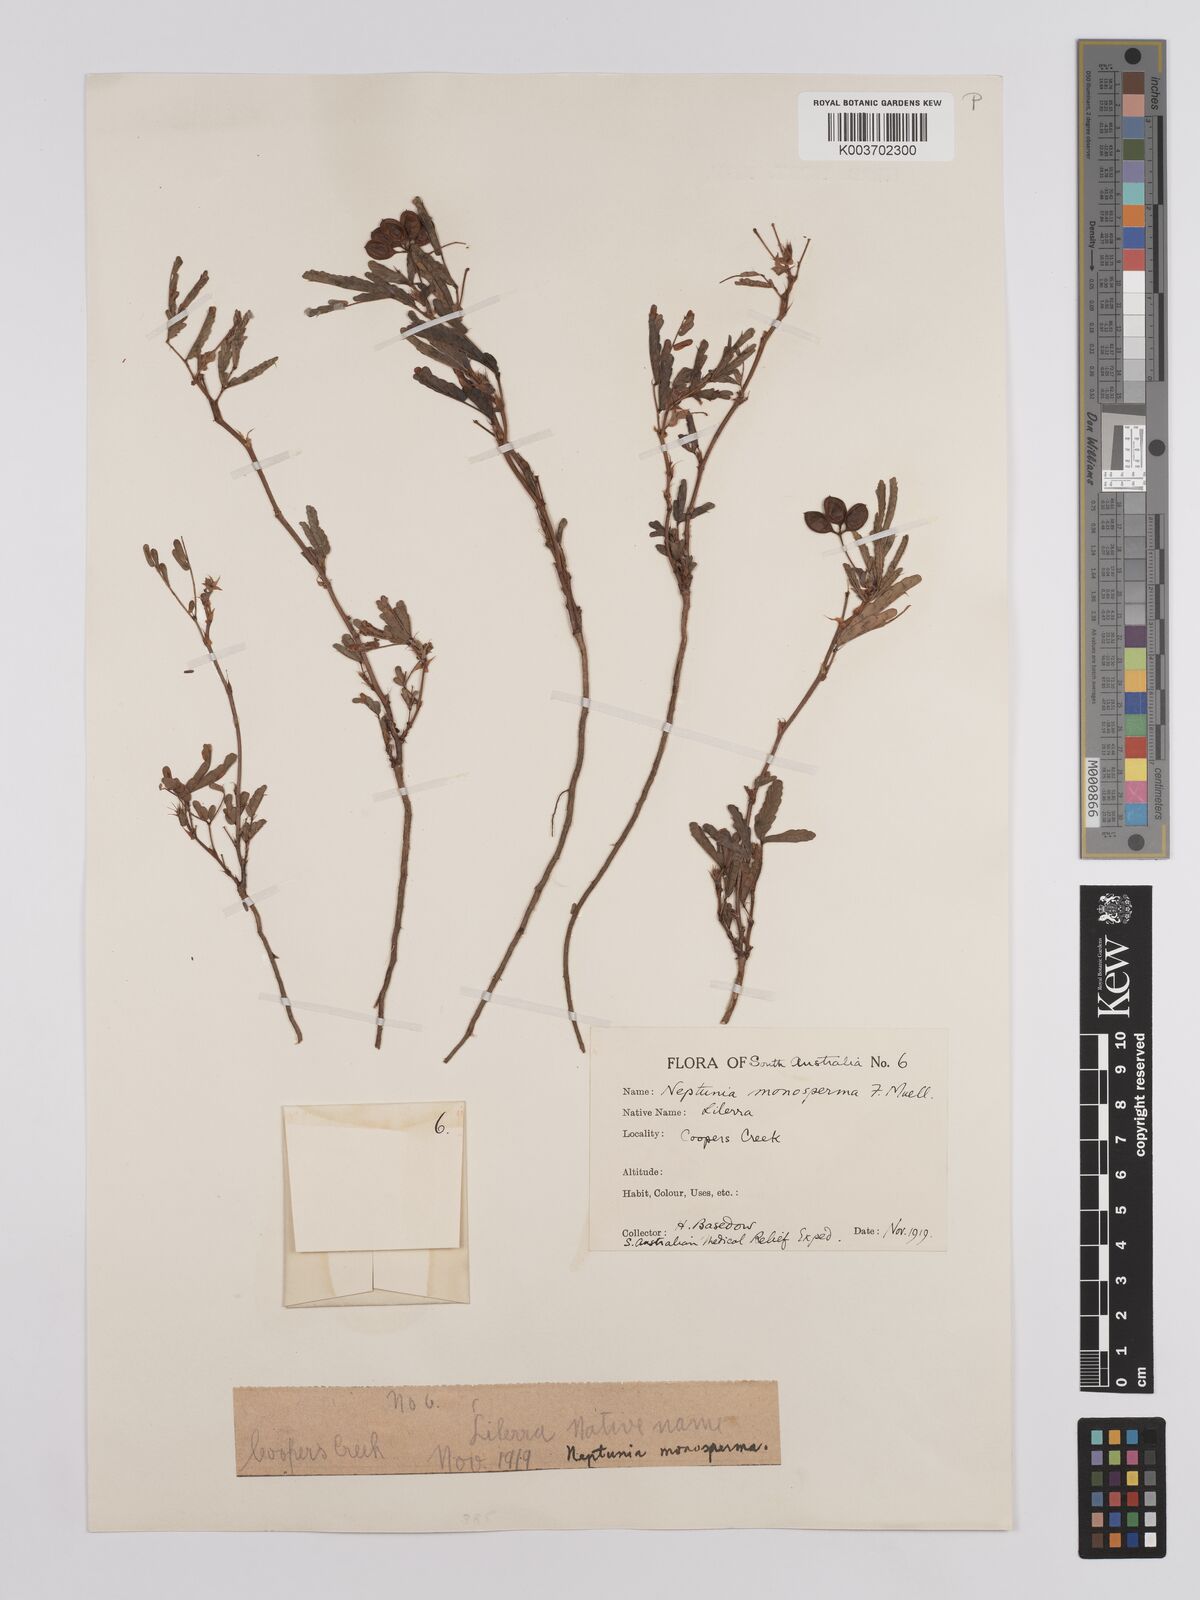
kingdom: Plantae
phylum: Tracheophyta
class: Magnoliopsida
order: Fabales
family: Fabaceae
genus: Neptunia
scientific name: Neptunia dimorphantha
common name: Sensitive-plant
